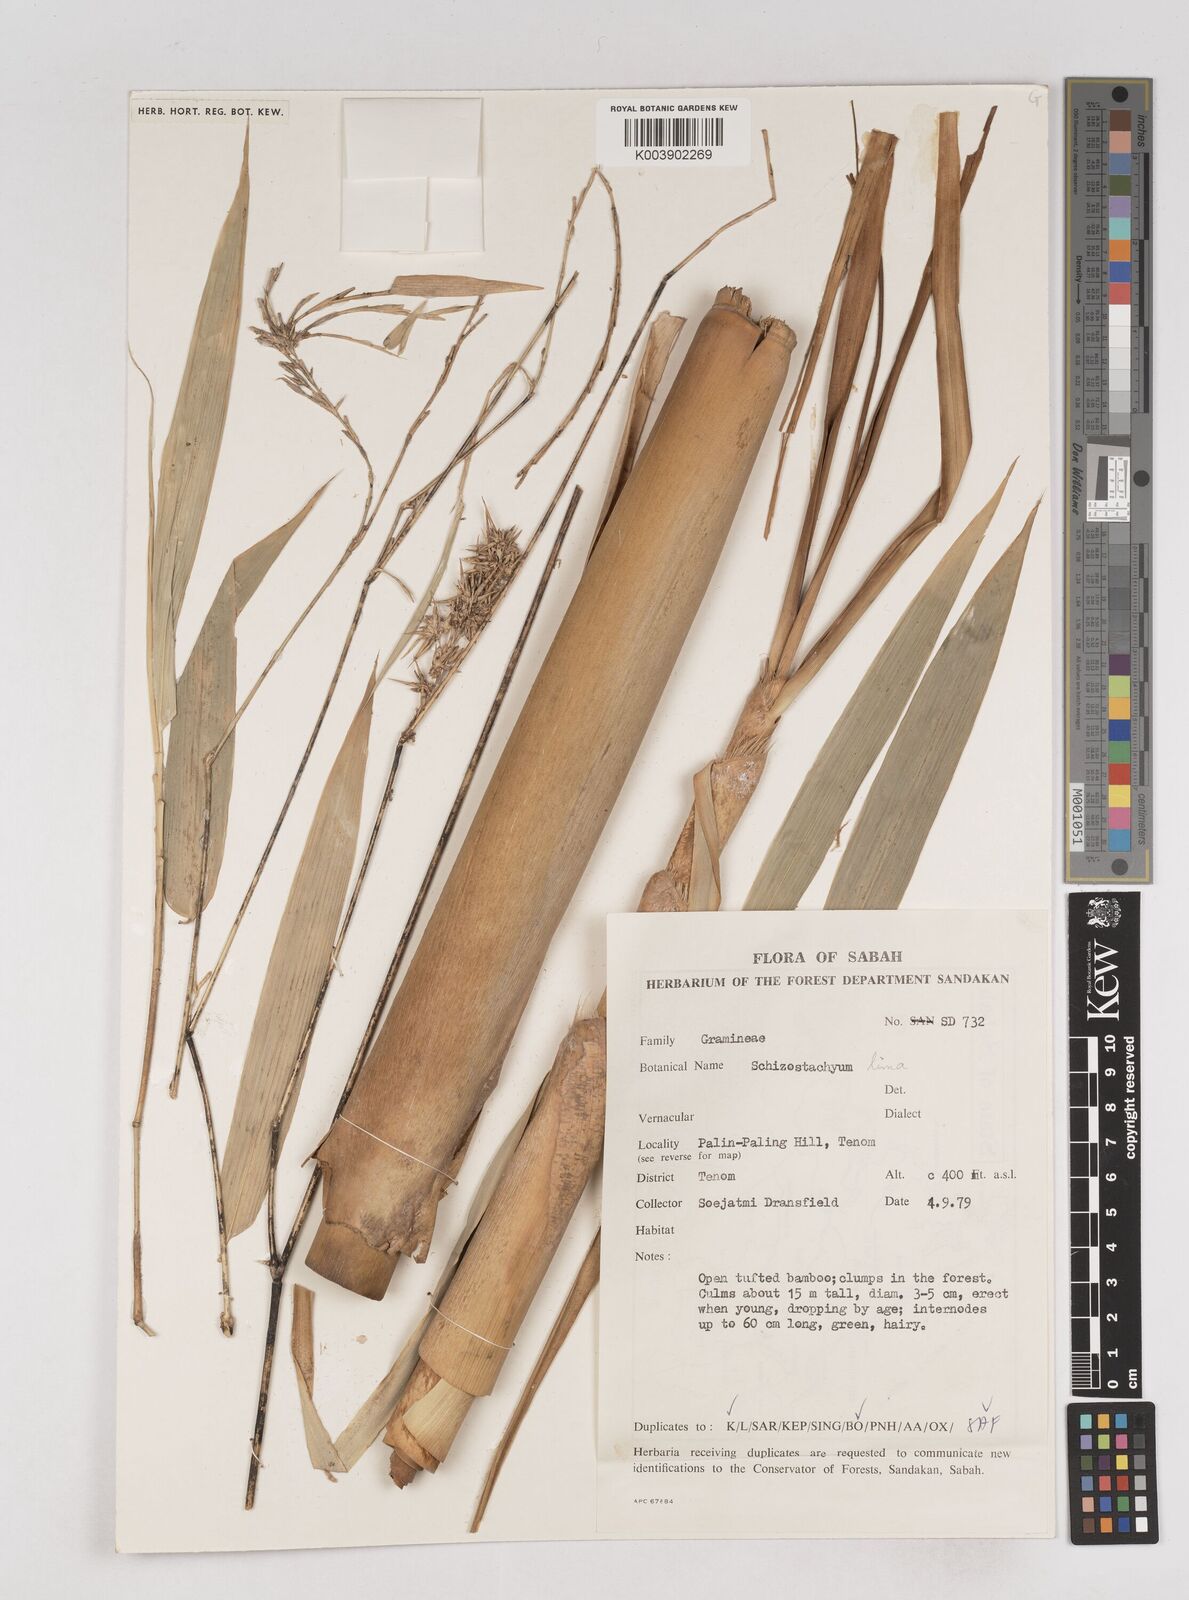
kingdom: Plantae
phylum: Tracheophyta
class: Liliopsida
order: Poales
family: Poaceae
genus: Schizostachyum
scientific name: Schizostachyum lima
